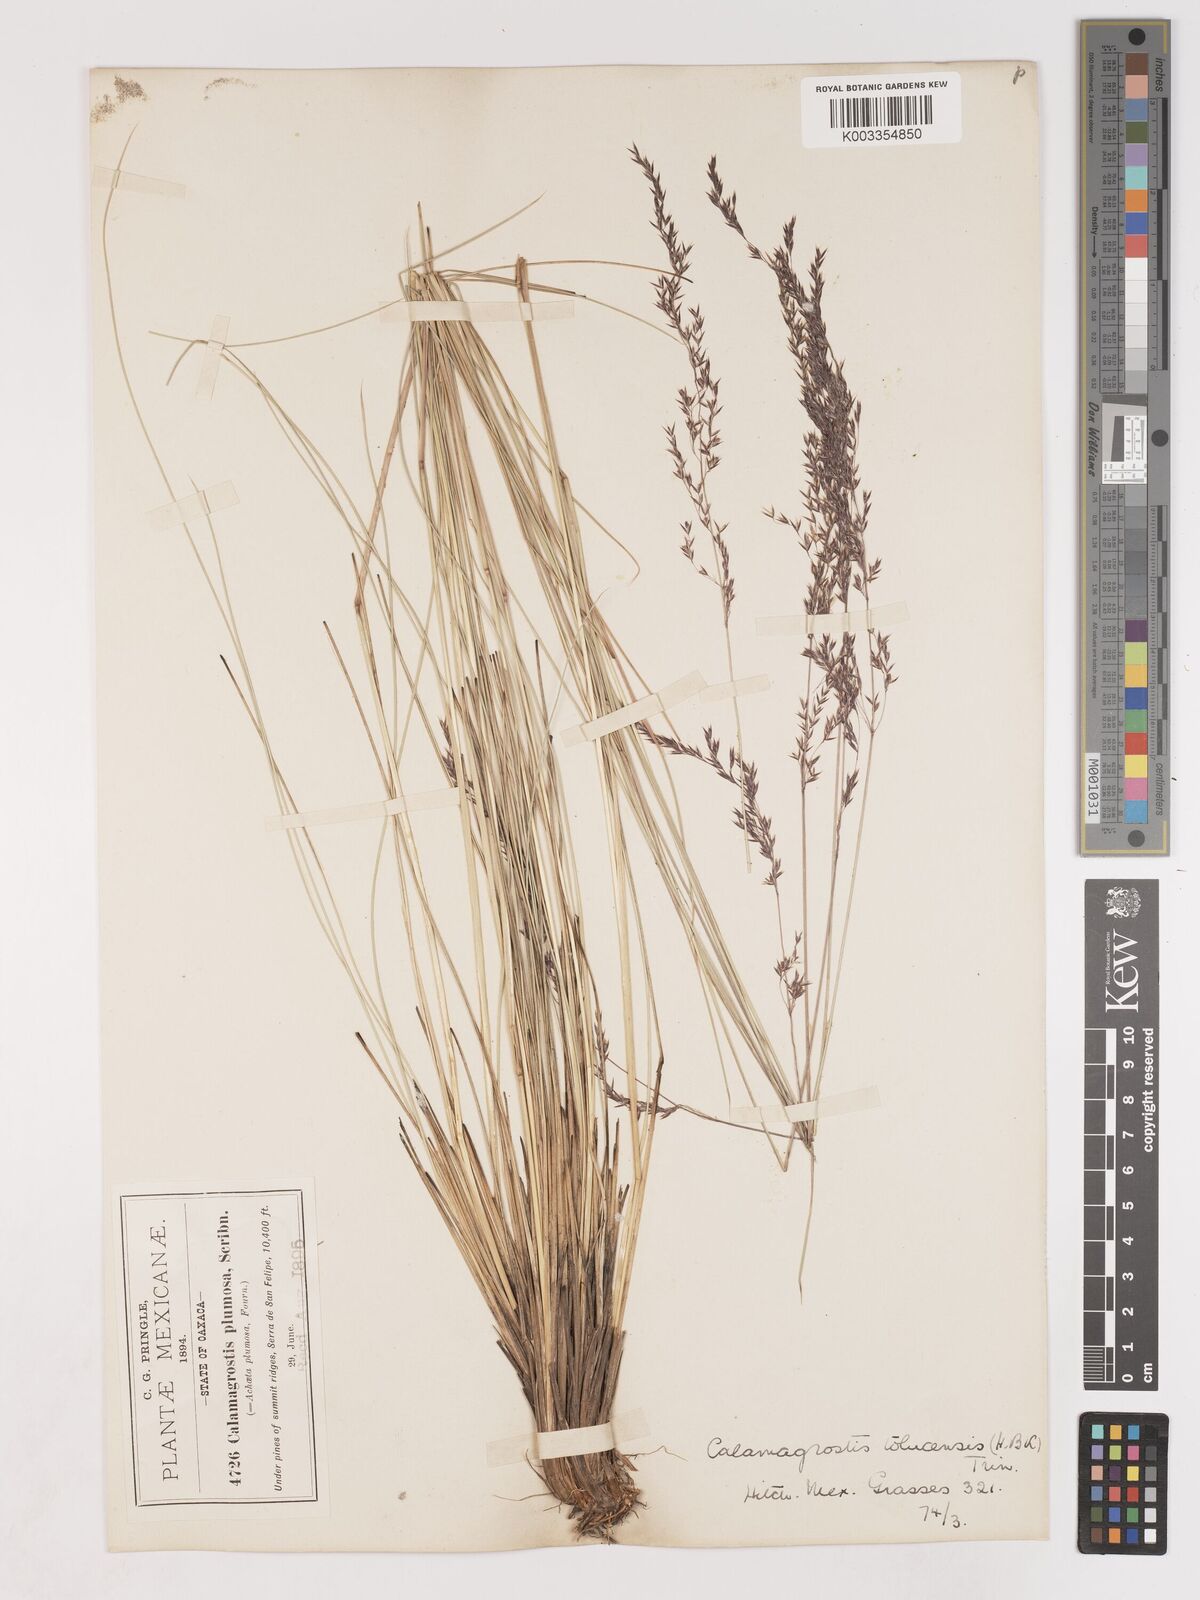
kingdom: Plantae
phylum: Tracheophyta
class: Liliopsida
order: Poales
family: Poaceae
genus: Peyritschia
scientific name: Peyritschia eriantha
